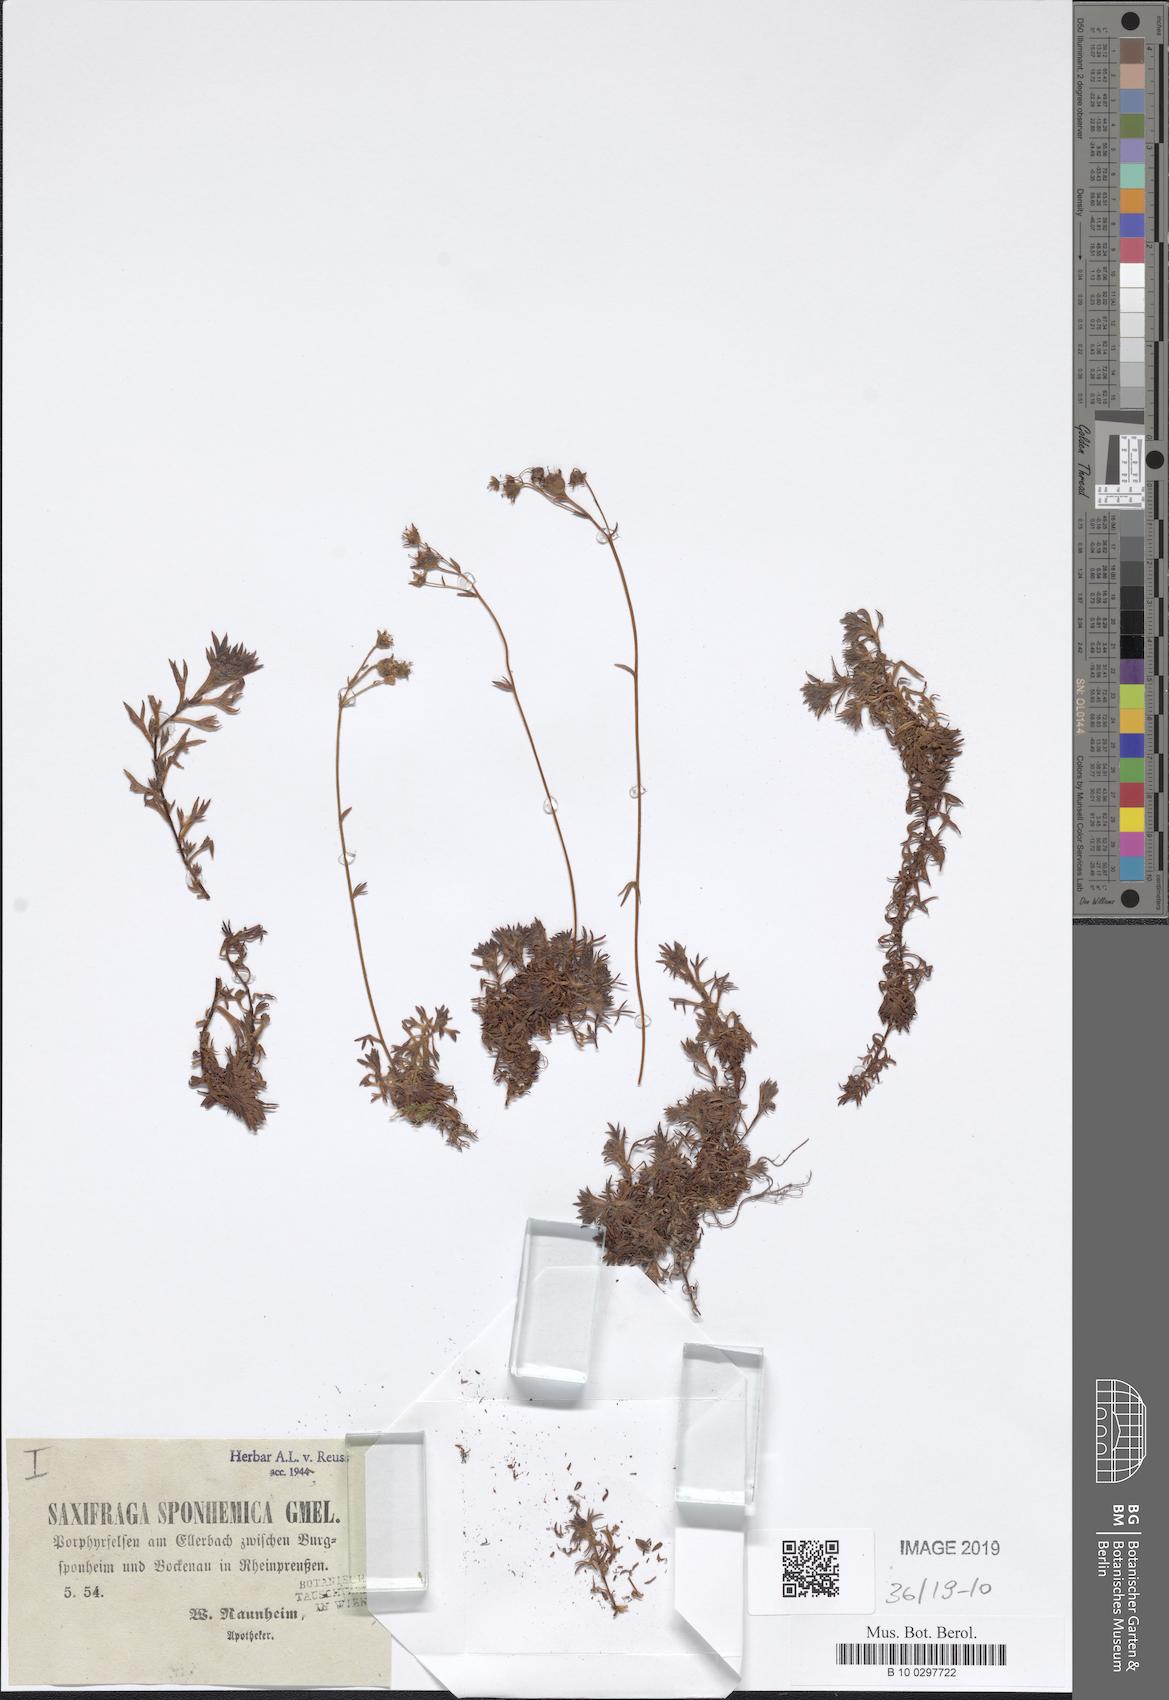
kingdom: Plantae
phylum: Tracheophyta
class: Magnoliopsida
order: Saxifragales
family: Saxifragaceae
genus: Saxifraga
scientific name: Saxifraga rosacea
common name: Irish saxifrage
